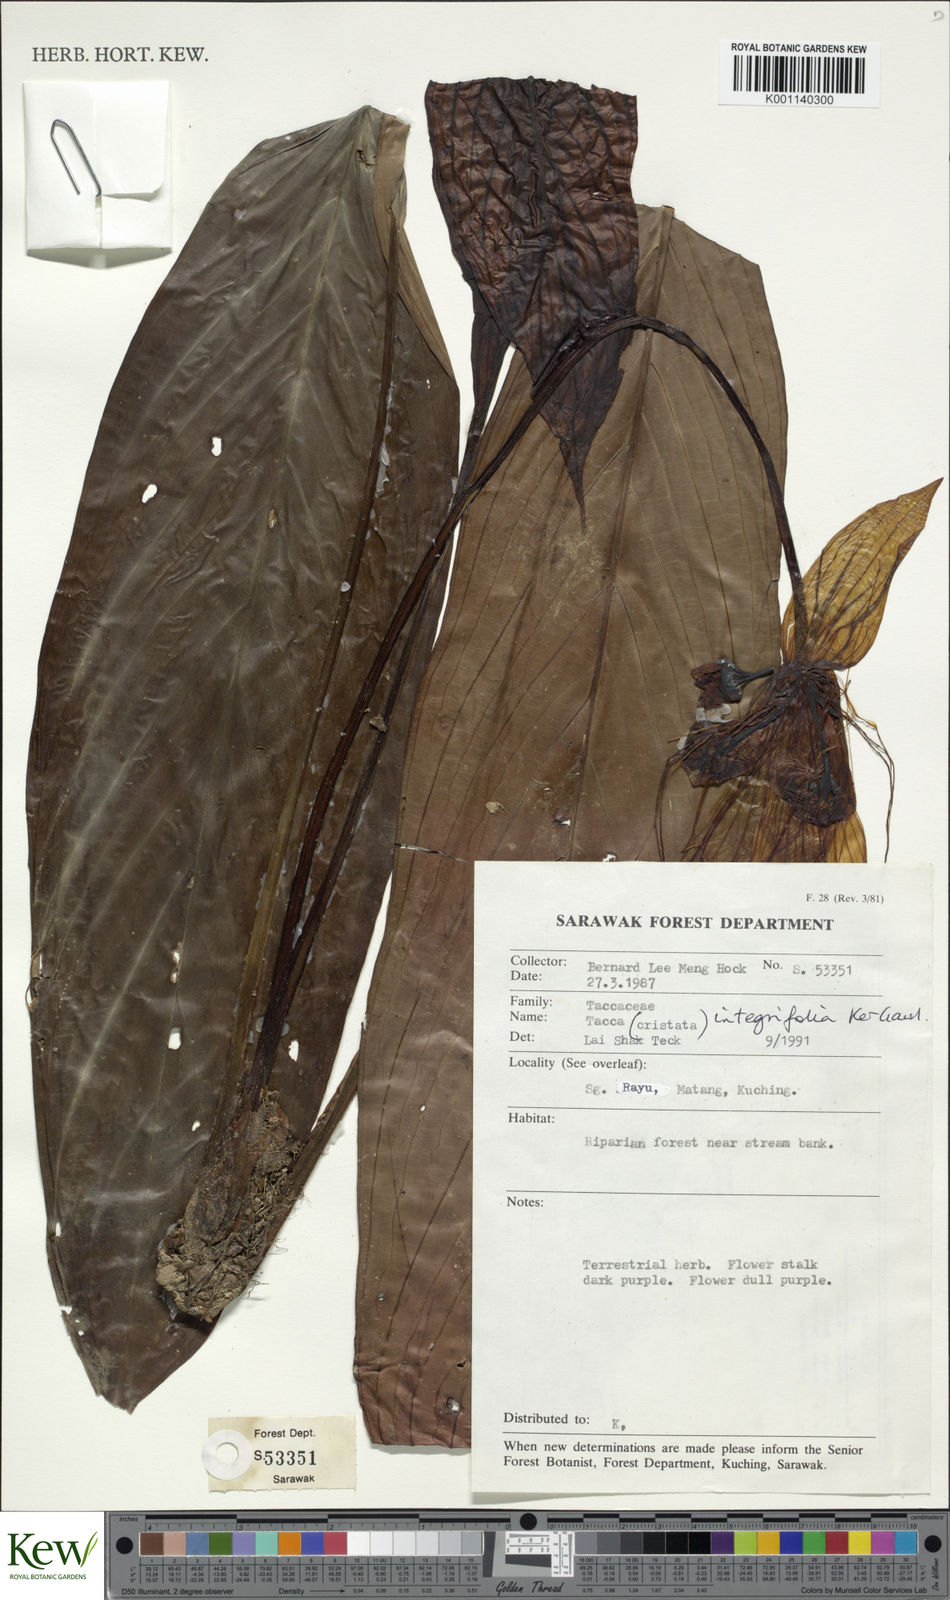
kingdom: Plantae
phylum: Tracheophyta
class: Liliopsida
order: Dioscoreales
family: Dioscoreaceae
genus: Tacca
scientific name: Tacca integrifolia
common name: Batplant
